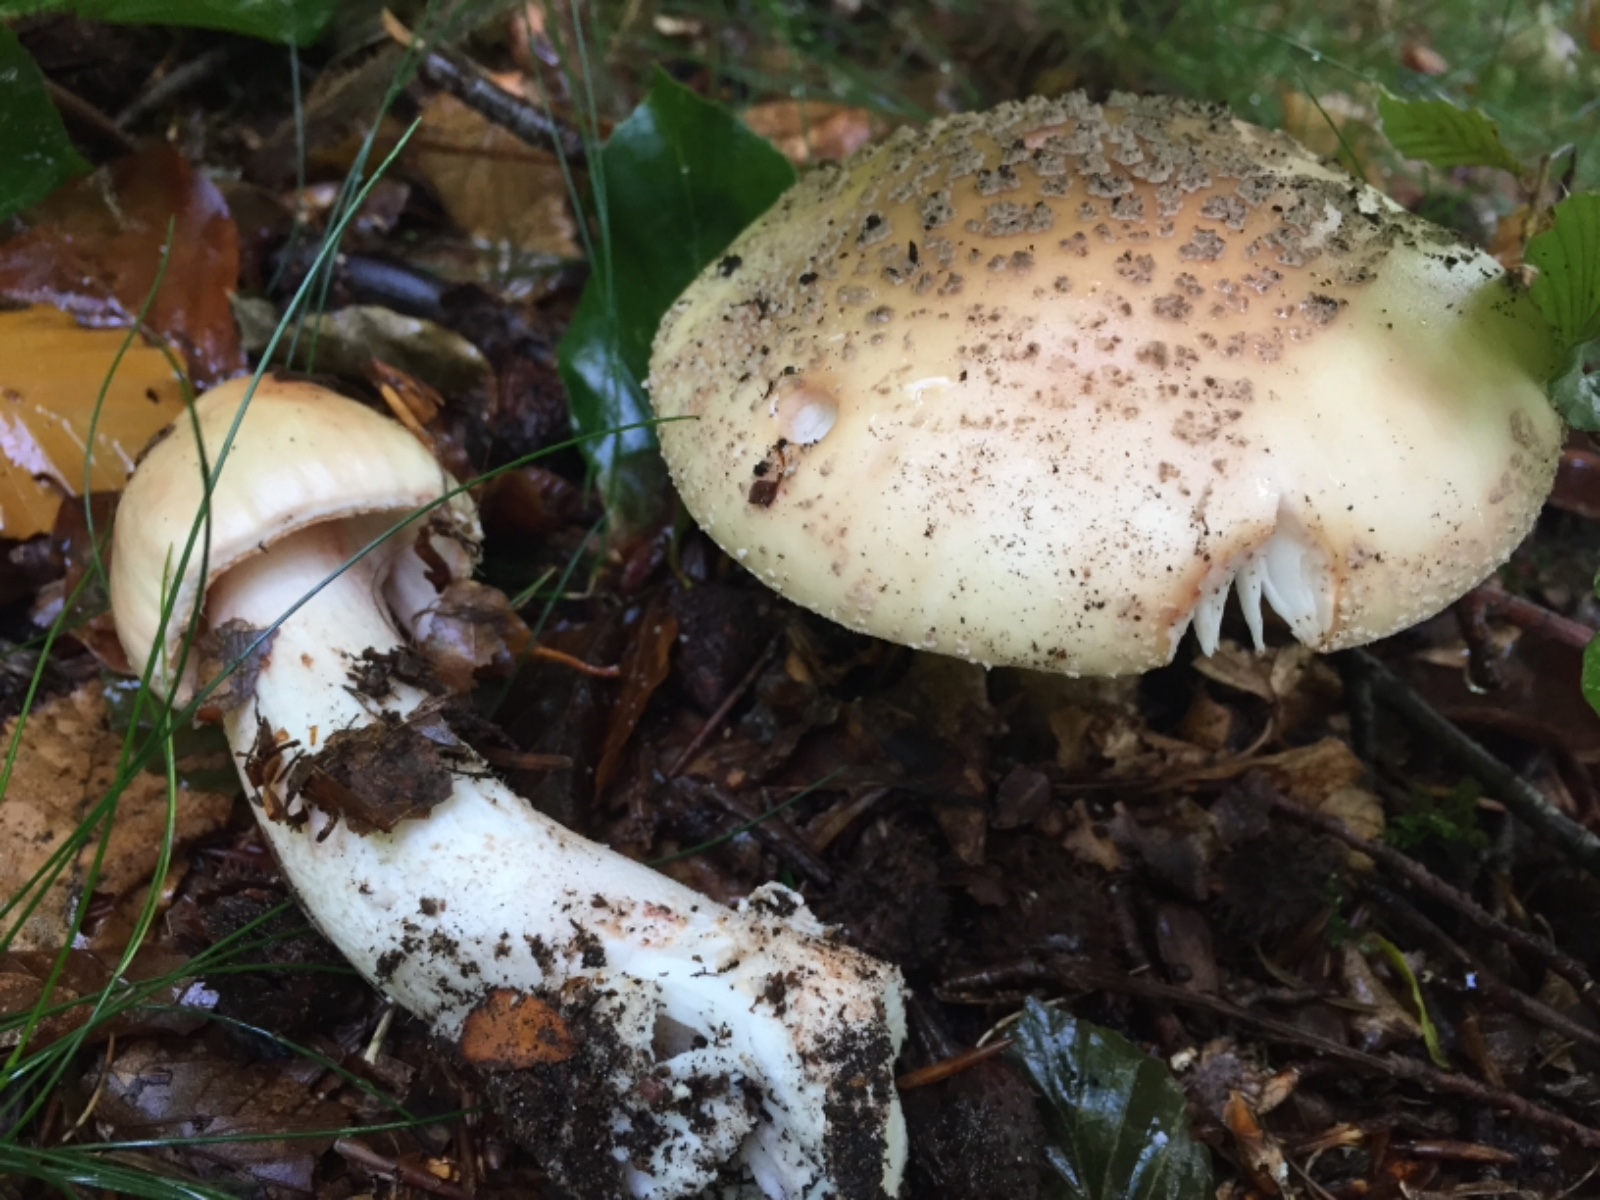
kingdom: Fungi
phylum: Basidiomycota
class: Agaricomycetes
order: Agaricales
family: Amanitaceae
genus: Amanita
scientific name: Amanita rubescens
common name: rødmende fluesvamp
